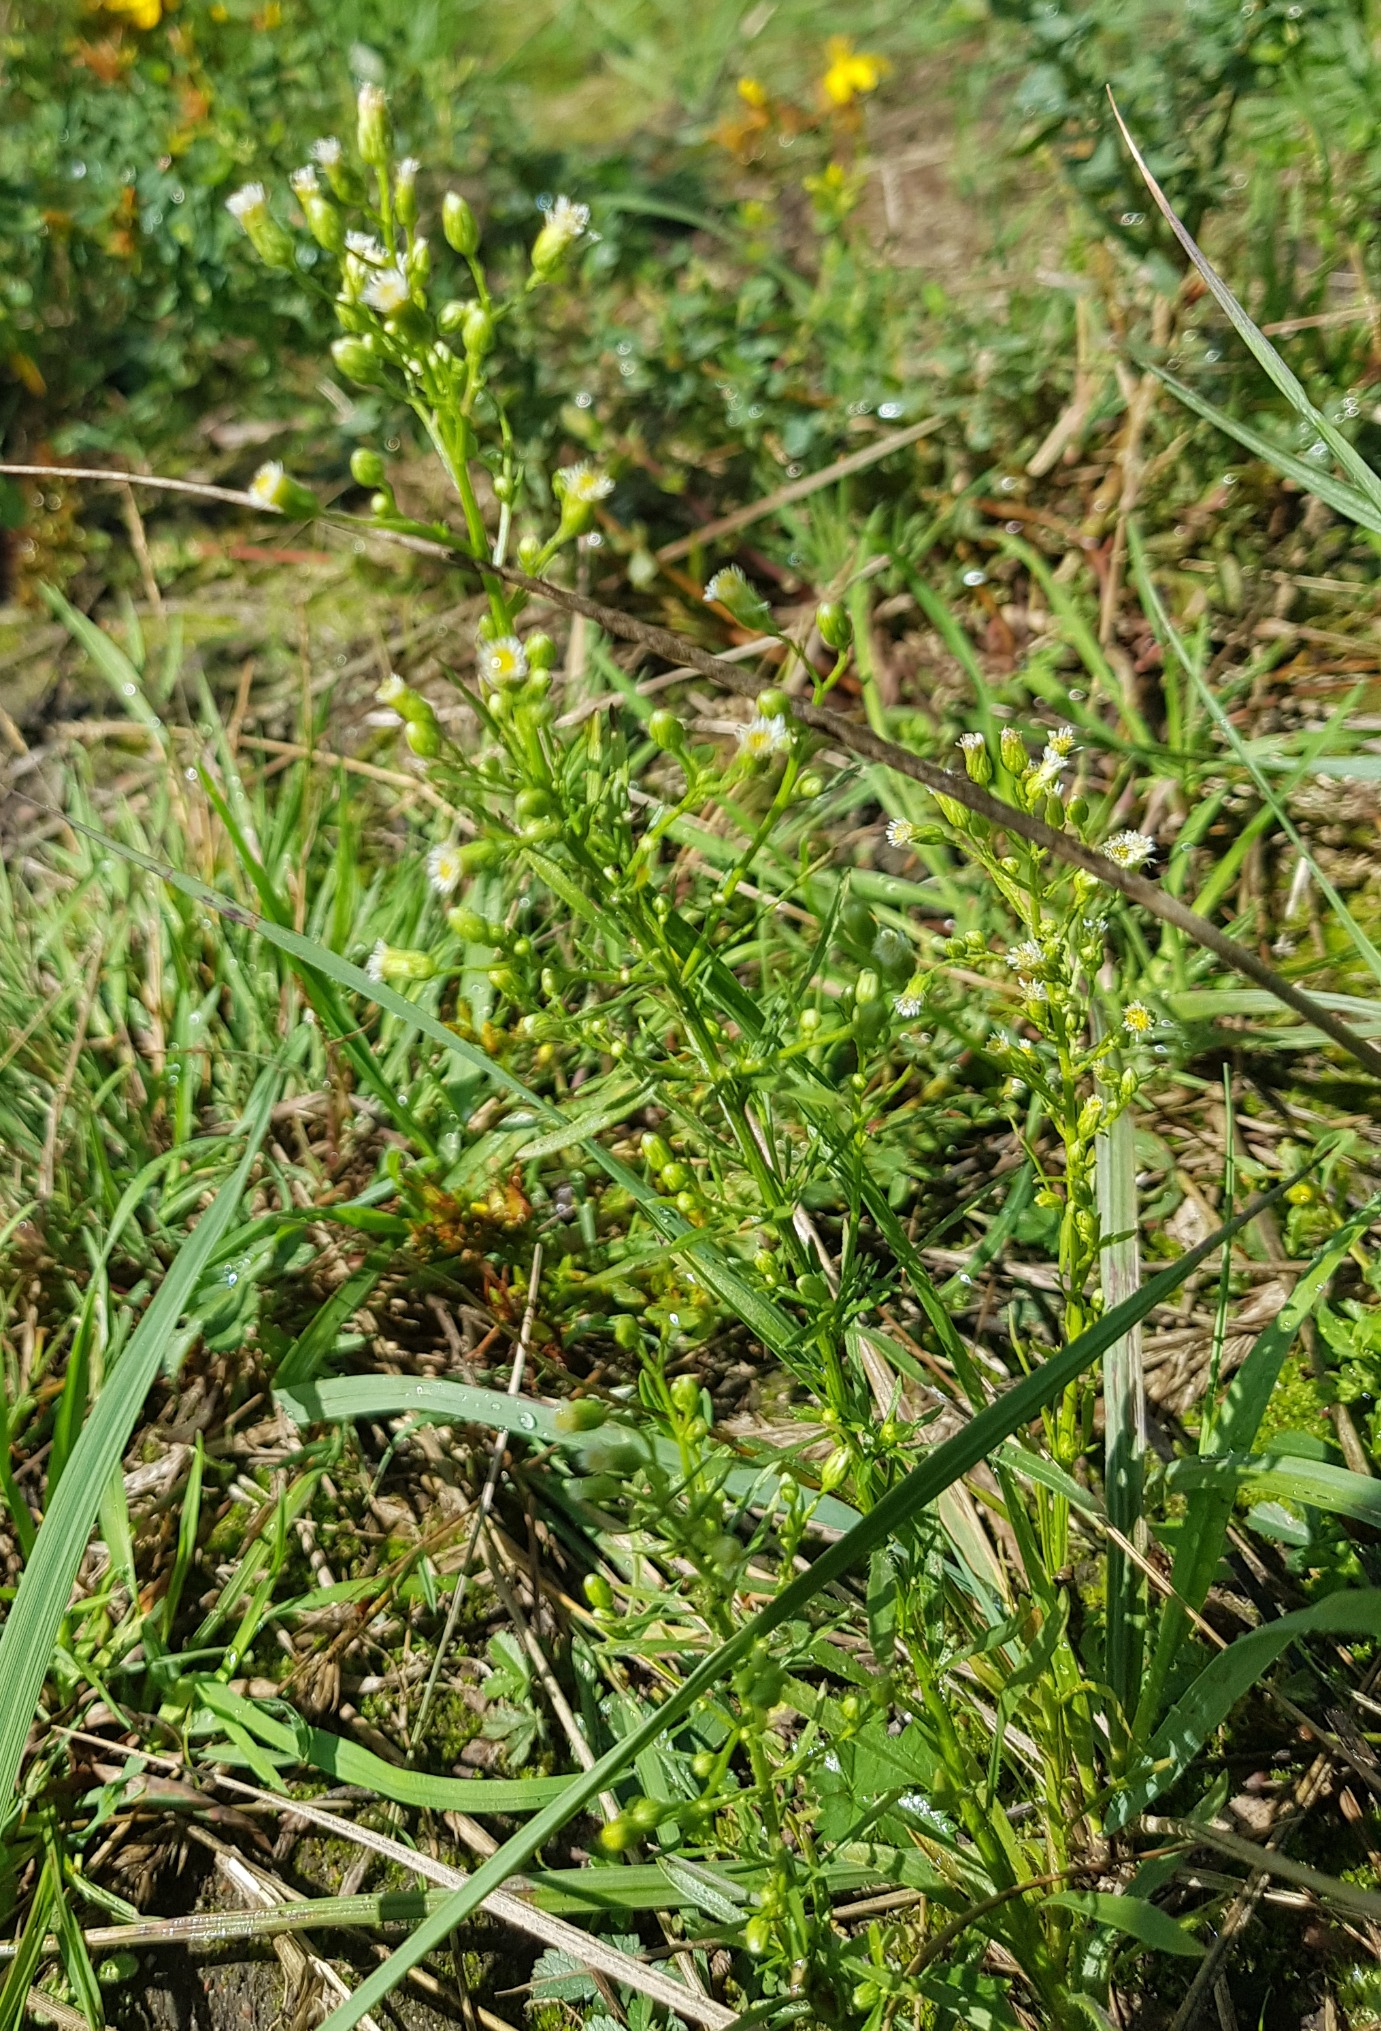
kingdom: Plantae
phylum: Tracheophyta
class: Magnoliopsida
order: Asterales
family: Asteraceae
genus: Erigeron
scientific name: Erigeron canadensis
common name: Kanadisk bakkestjerne
